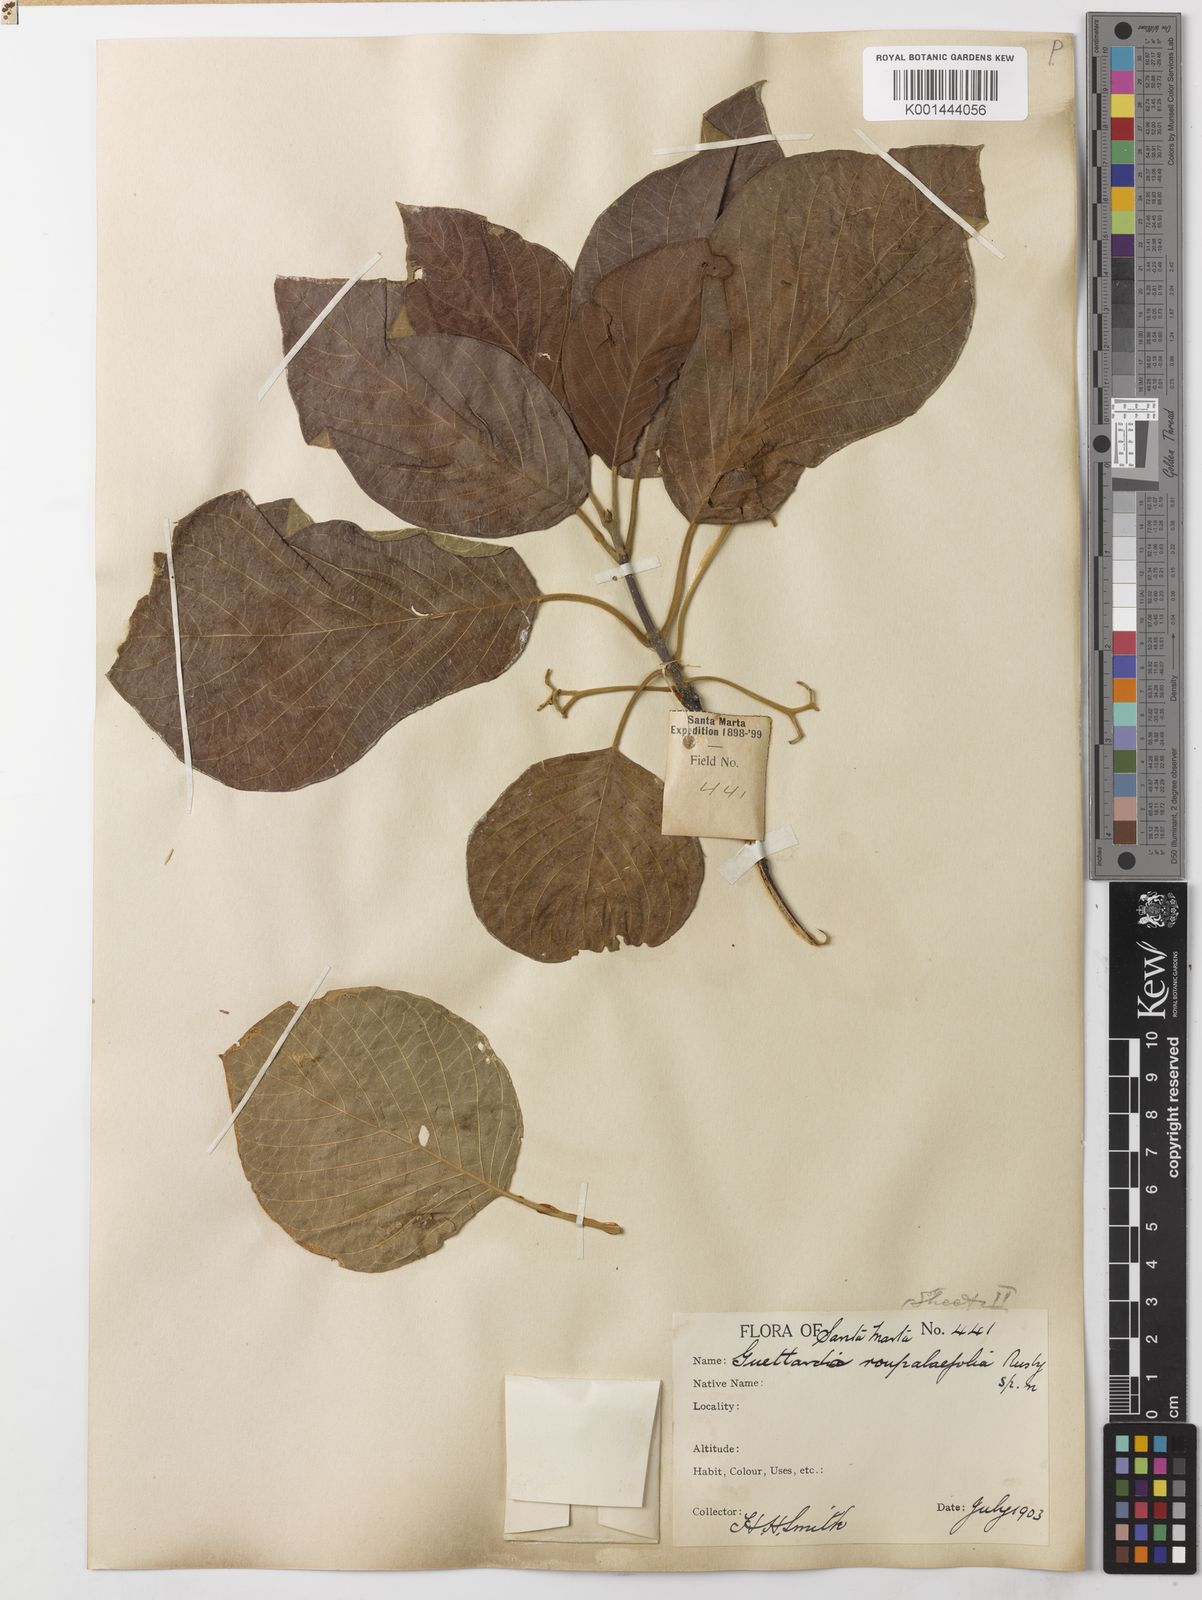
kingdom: Plantae
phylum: Tracheophyta
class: Magnoliopsida
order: Gentianales
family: Rubiaceae
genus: Guettarda
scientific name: Guettarda roupaliifolia
